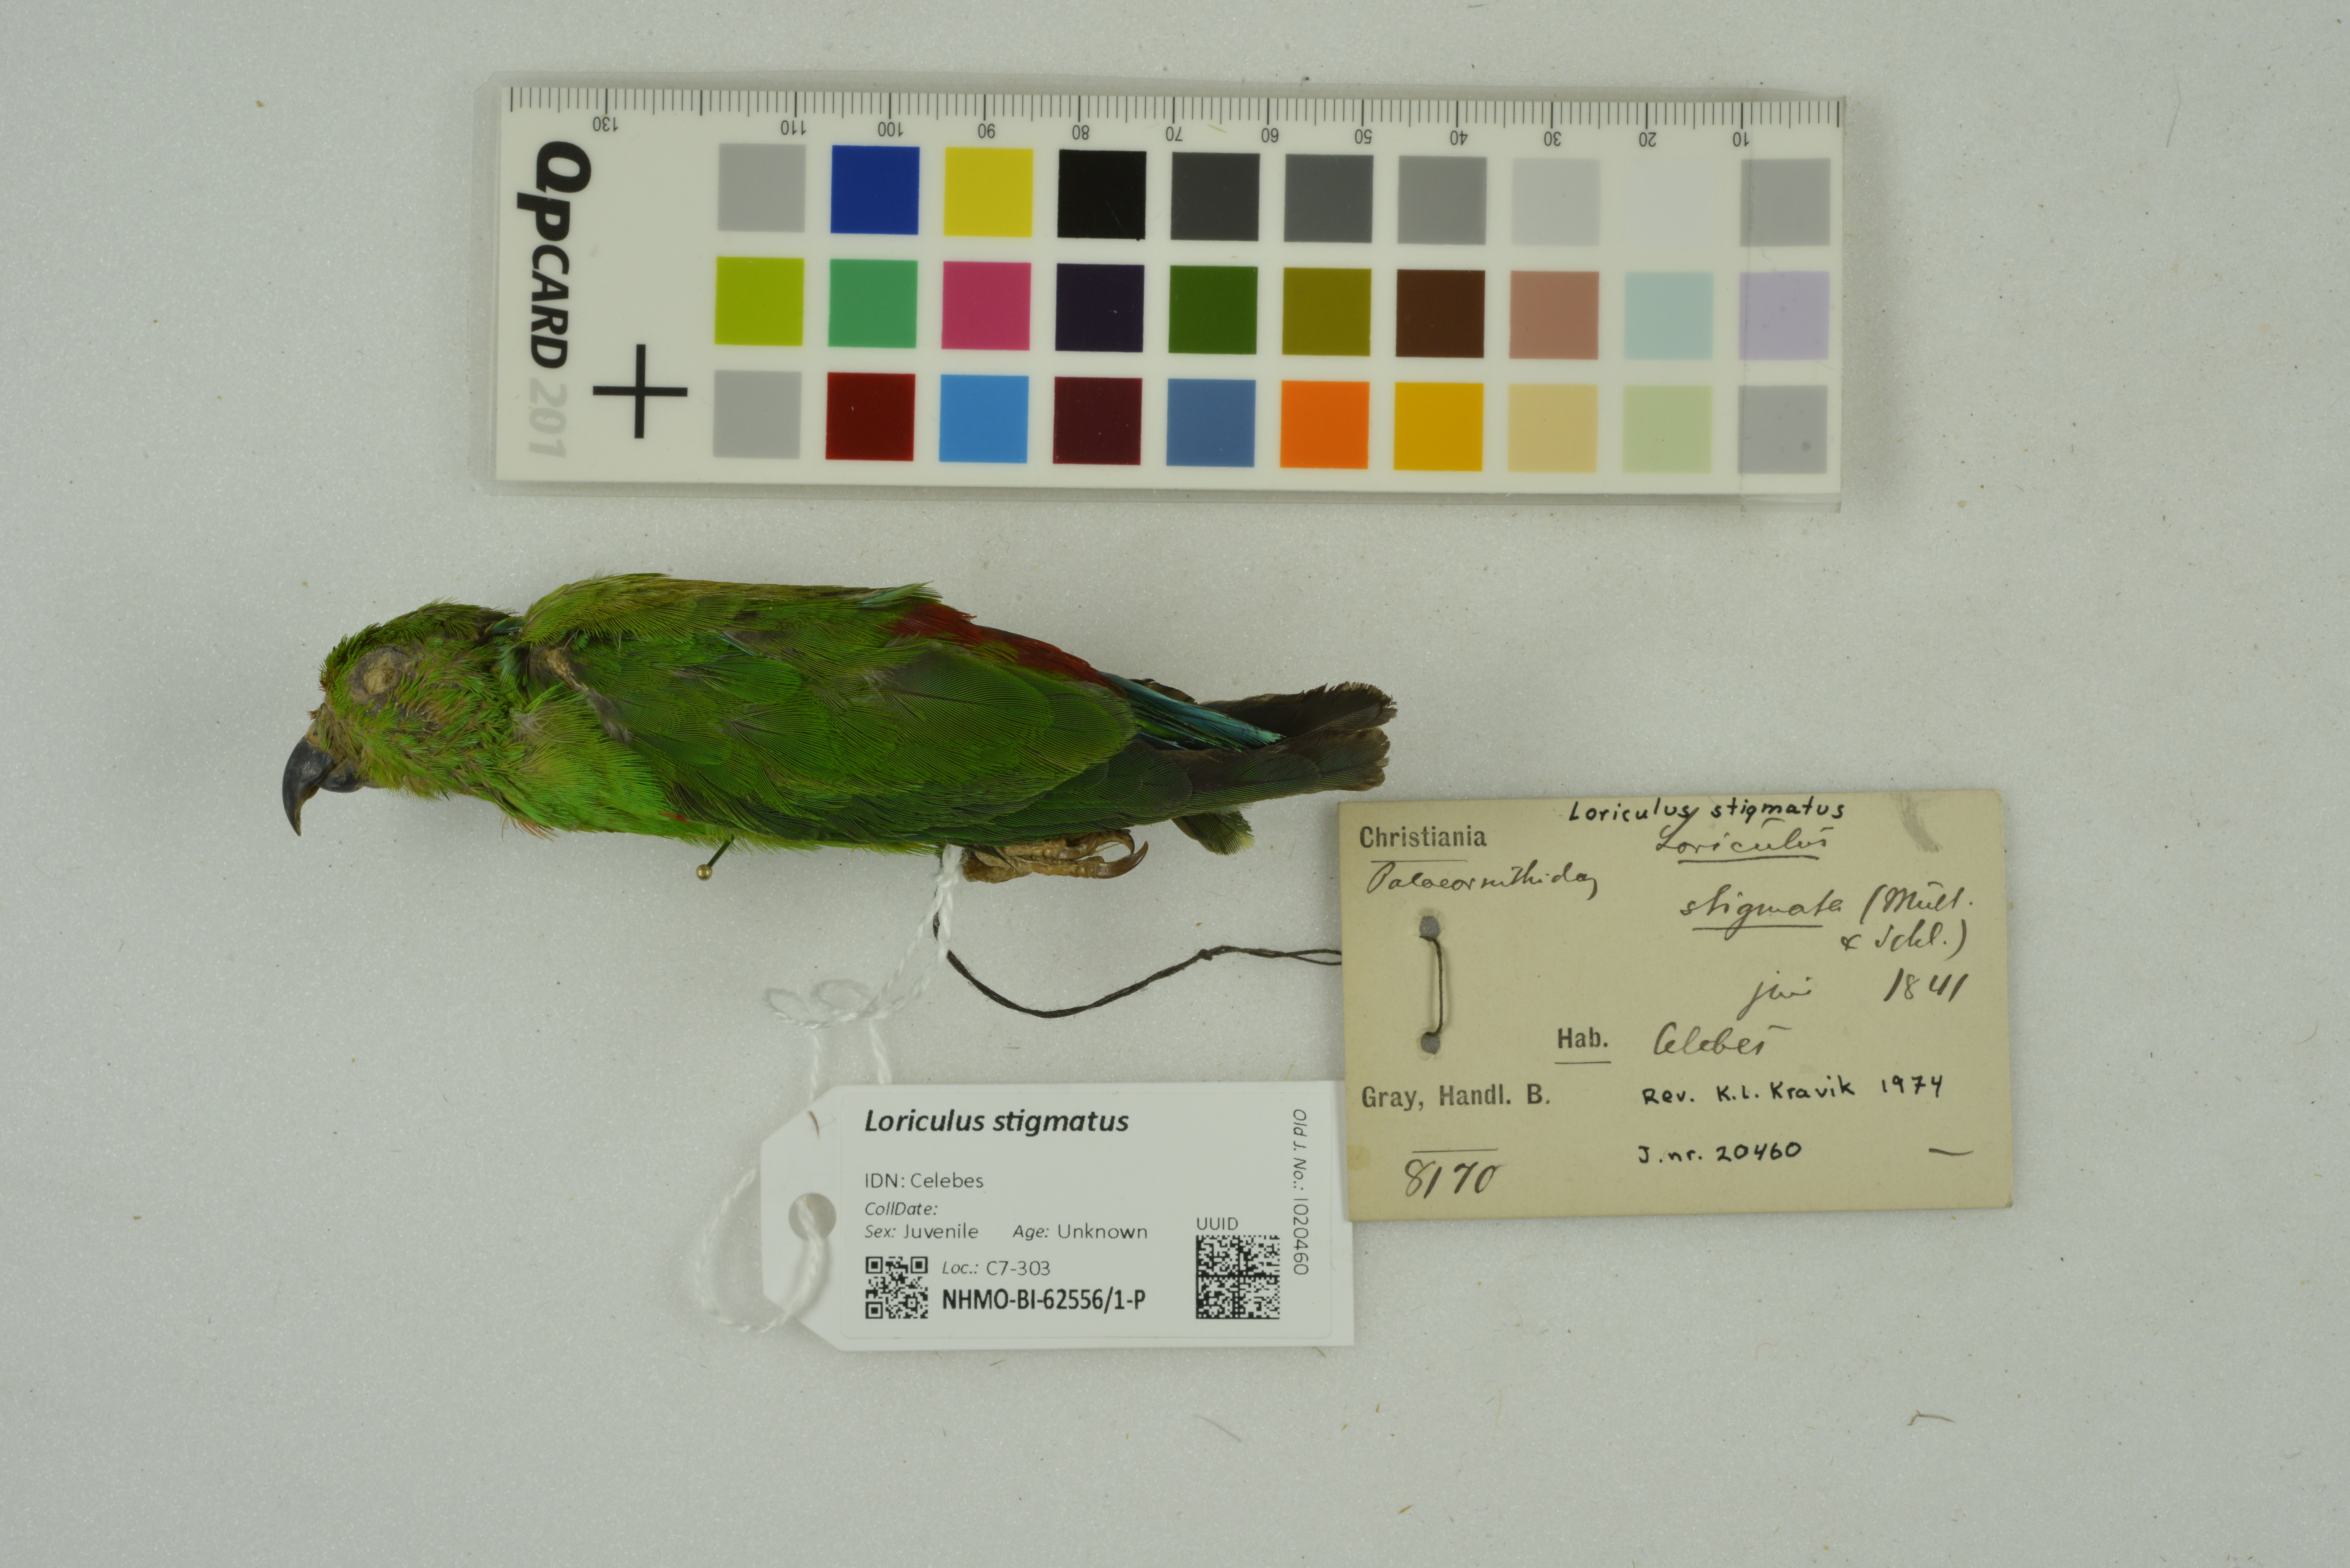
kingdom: Animalia
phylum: Chordata
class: Aves
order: Psittaciformes
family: Psittacidae
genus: Loriculus
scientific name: Loriculus stigmatus
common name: Great hanging parrot
